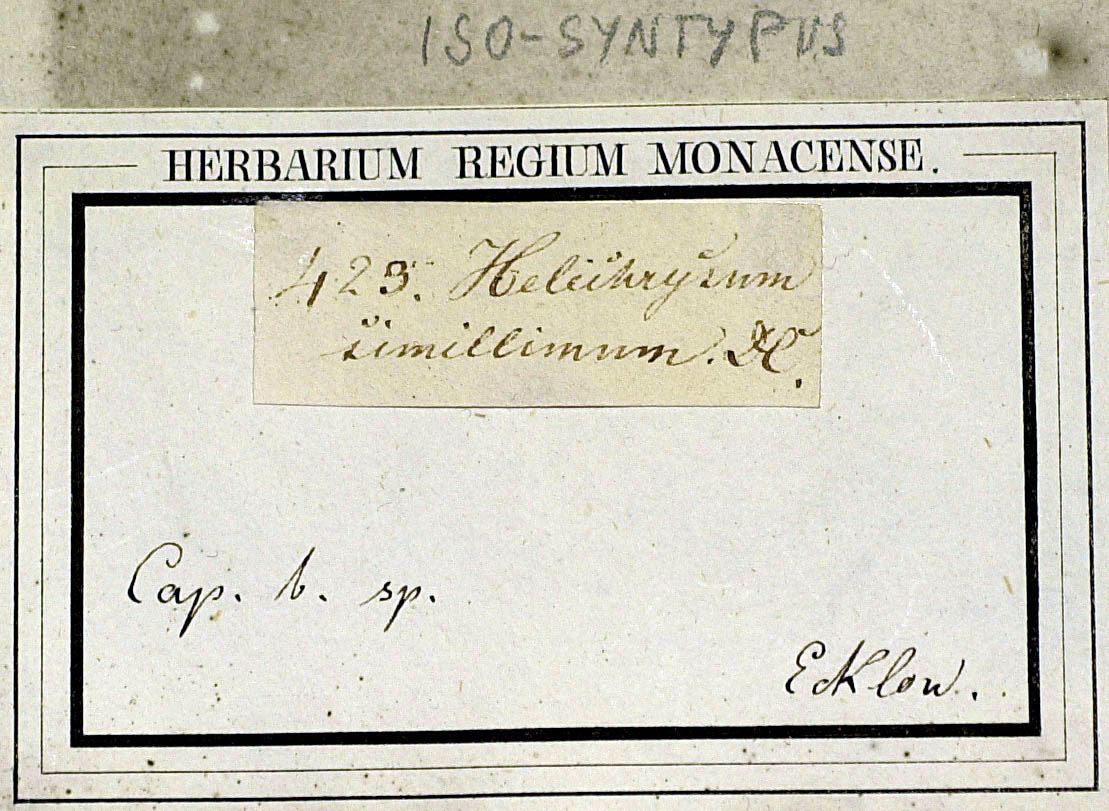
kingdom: Plantae
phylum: Tracheophyta
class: Magnoliopsida
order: Asterales
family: Asteraceae
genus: Helichrysum
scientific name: Helichrysum simillimum
